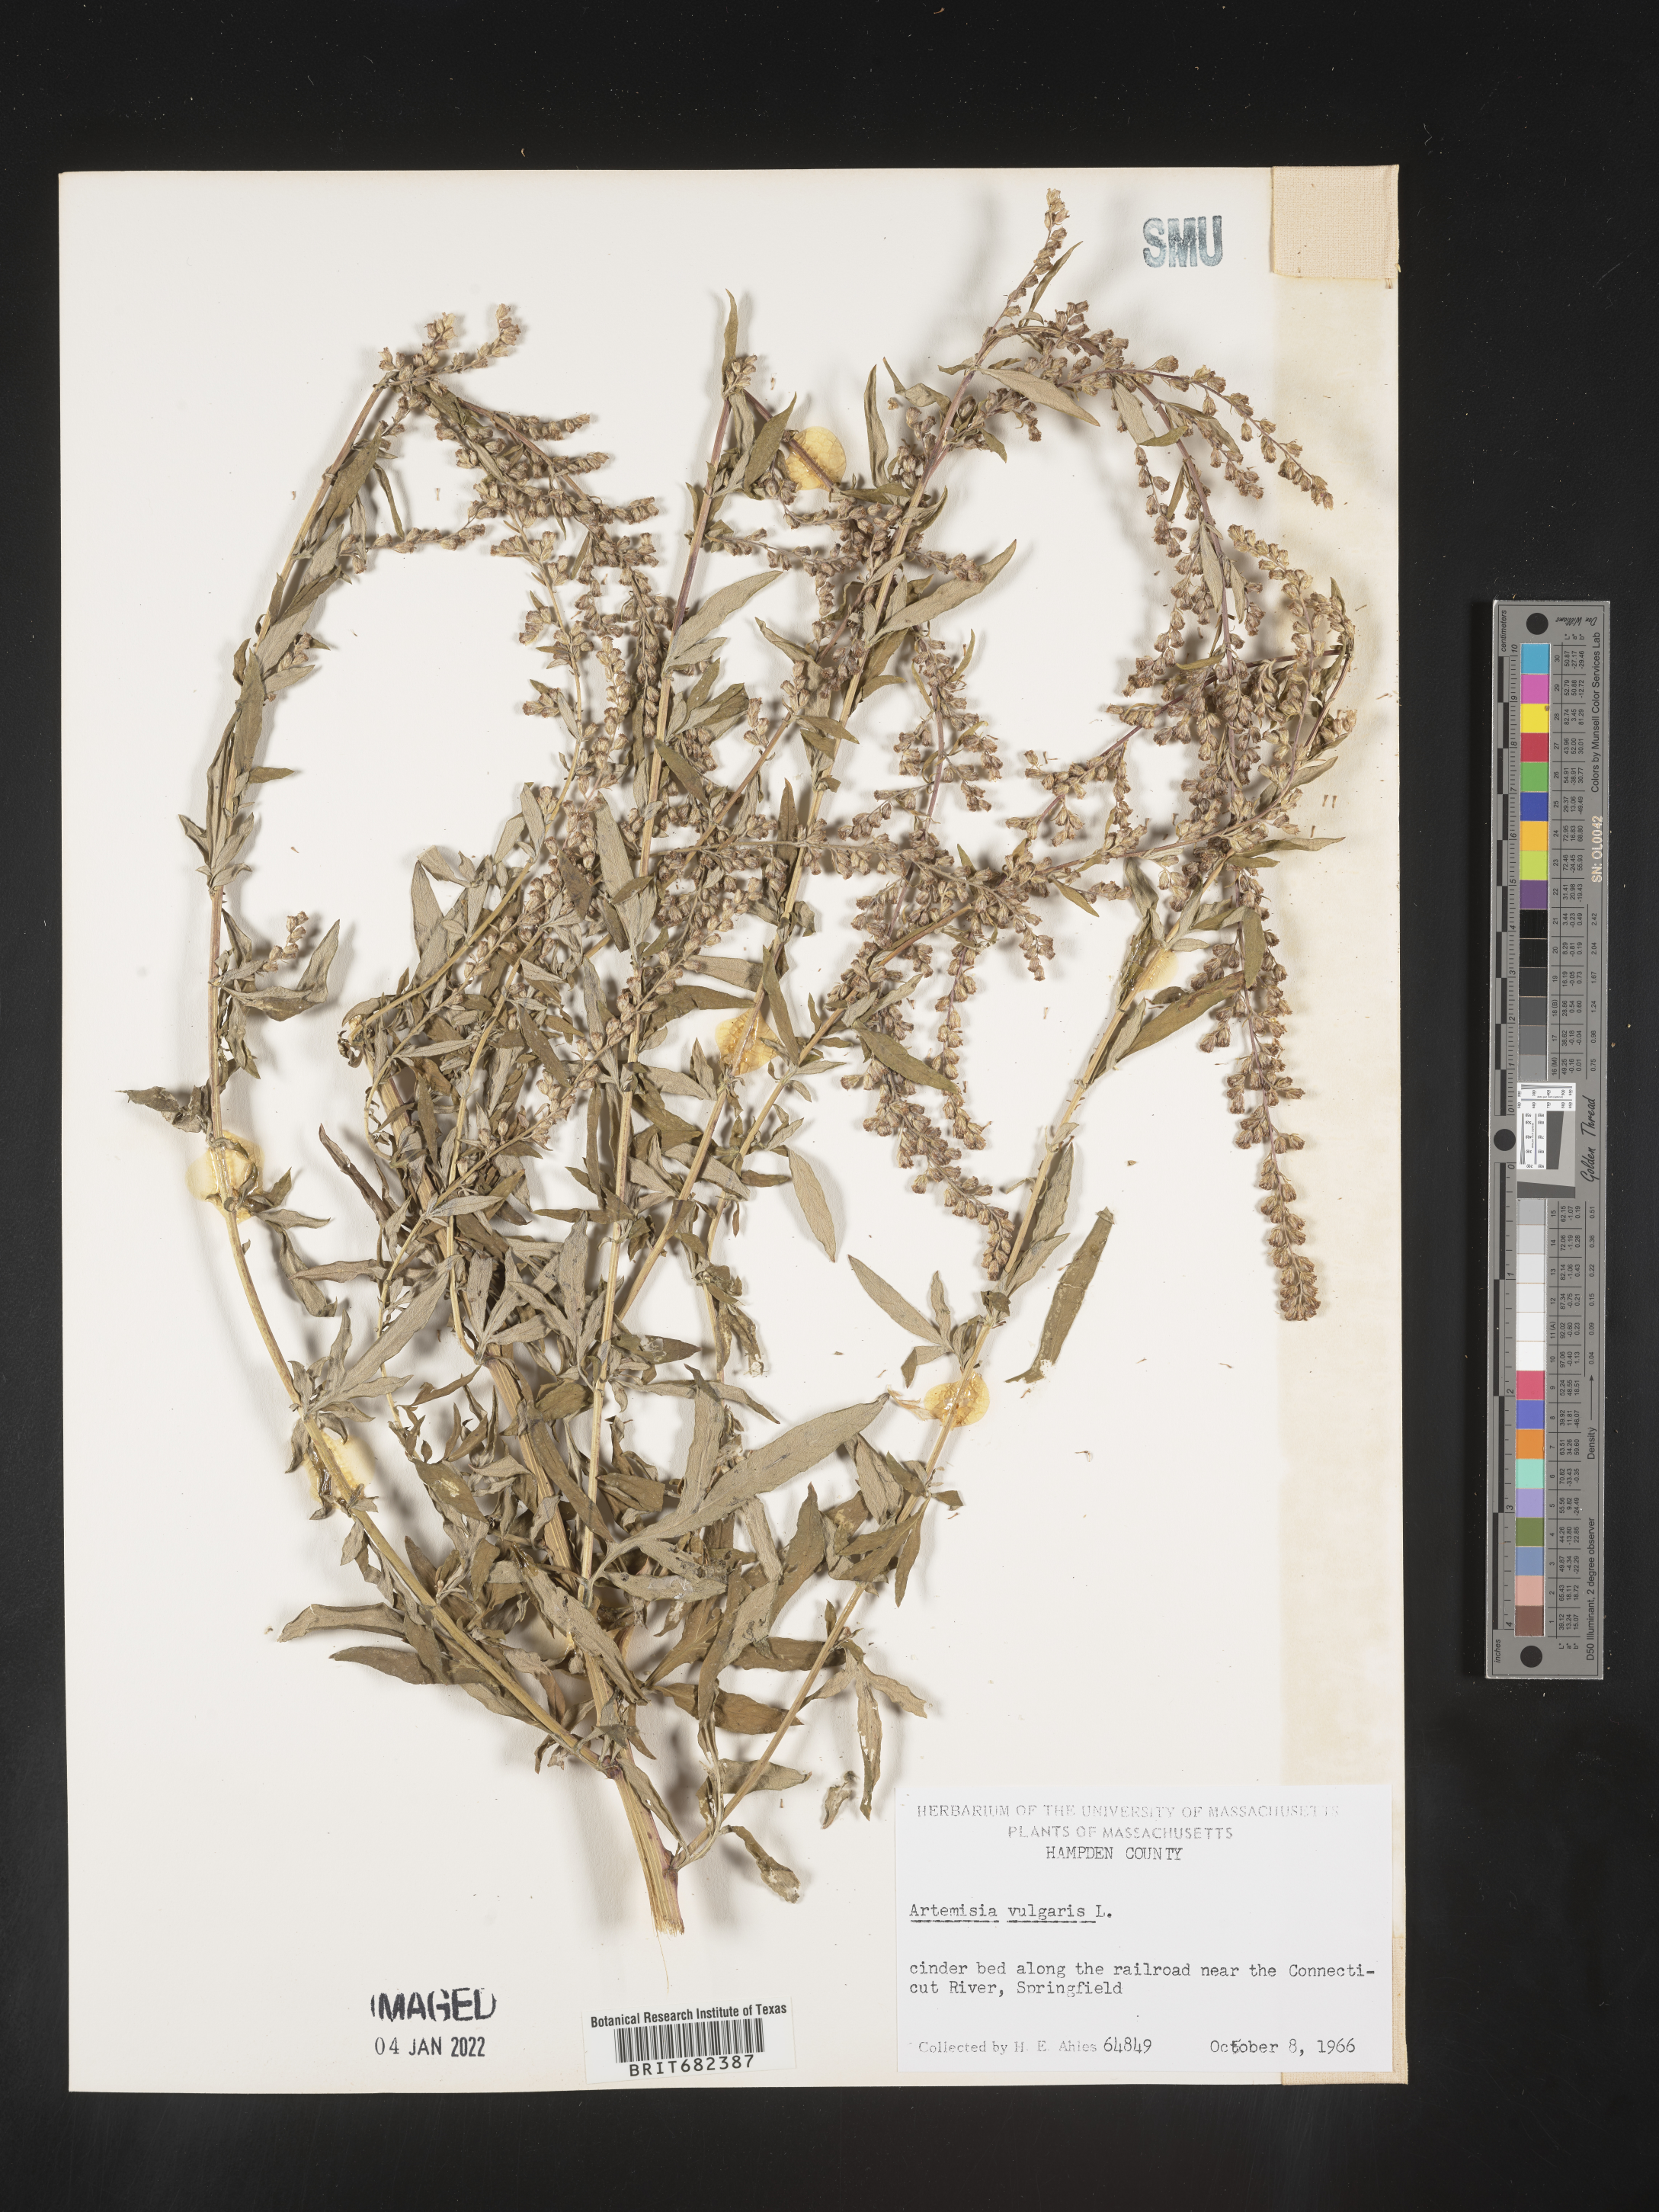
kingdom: Plantae
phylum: Tracheophyta
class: Magnoliopsida
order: Asterales
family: Asteraceae
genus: Artemisia
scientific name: Artemisia vulgaris
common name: Mugwort
